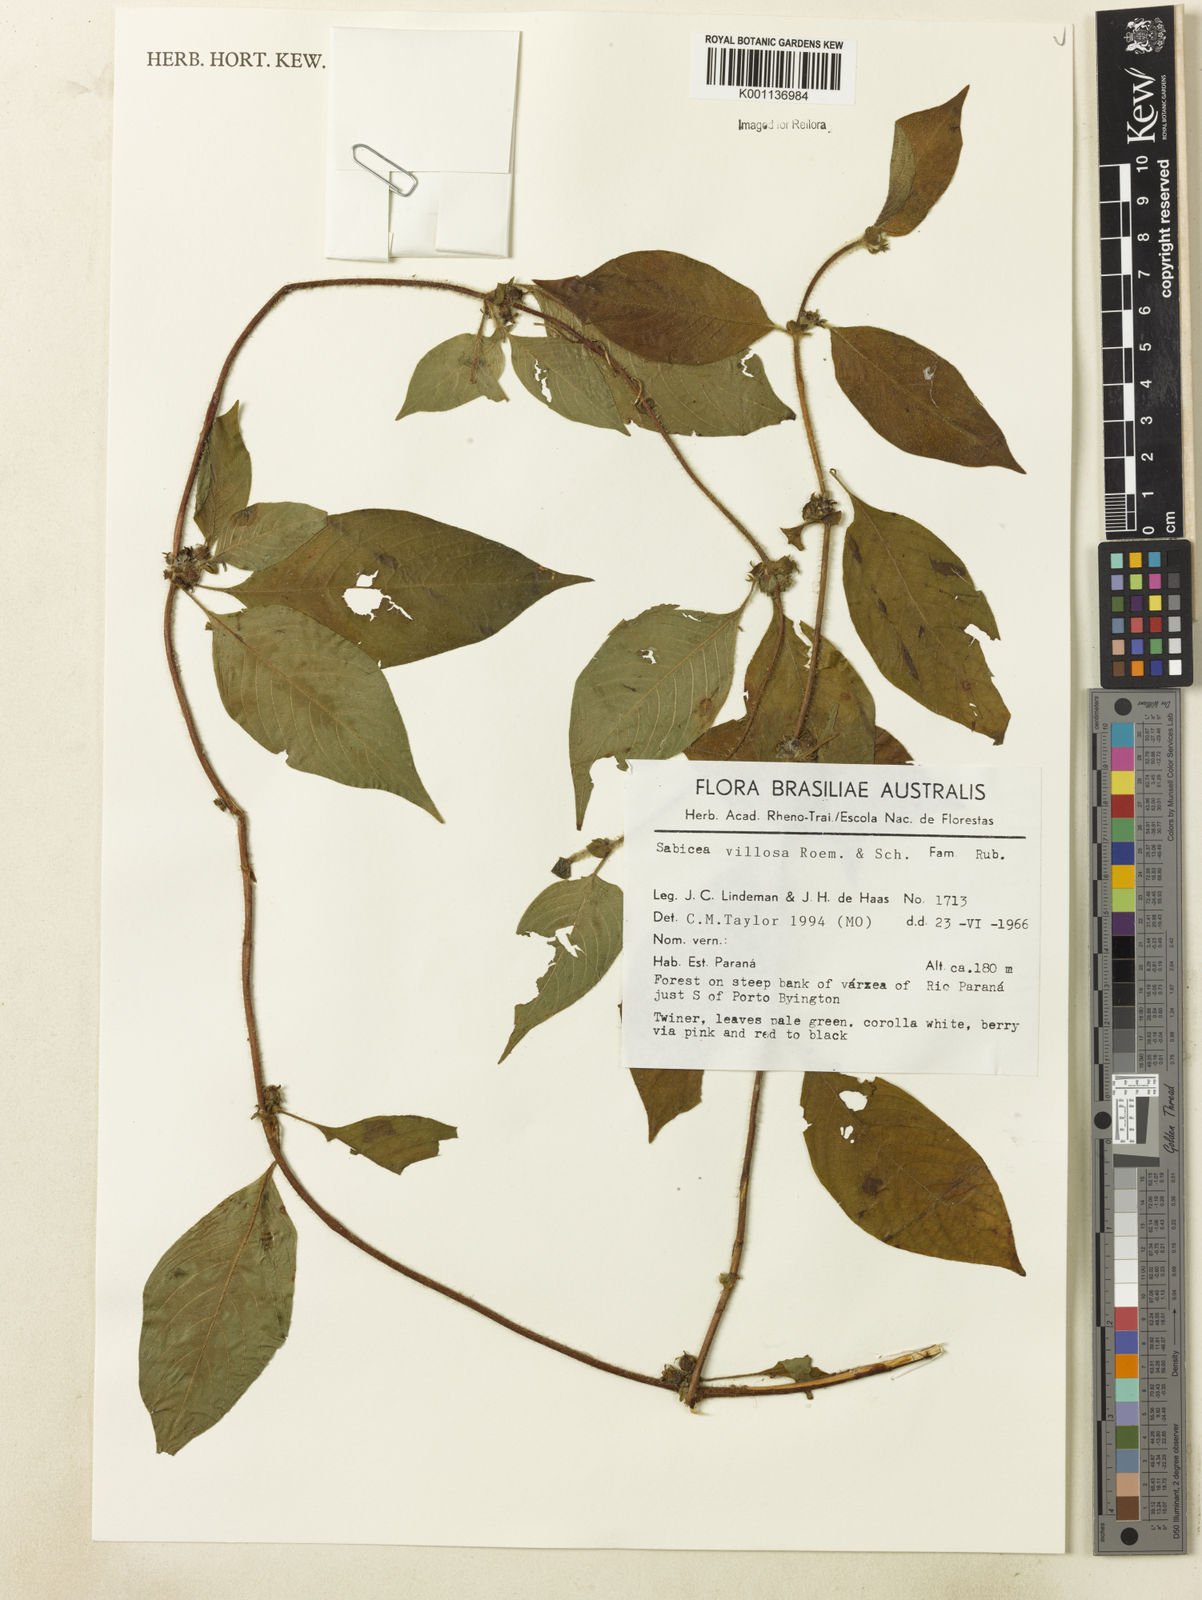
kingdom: Plantae
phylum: Tracheophyta
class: Magnoliopsida
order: Gentianales
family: Rubiaceae
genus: Sabicea
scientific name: Sabicea villosa
